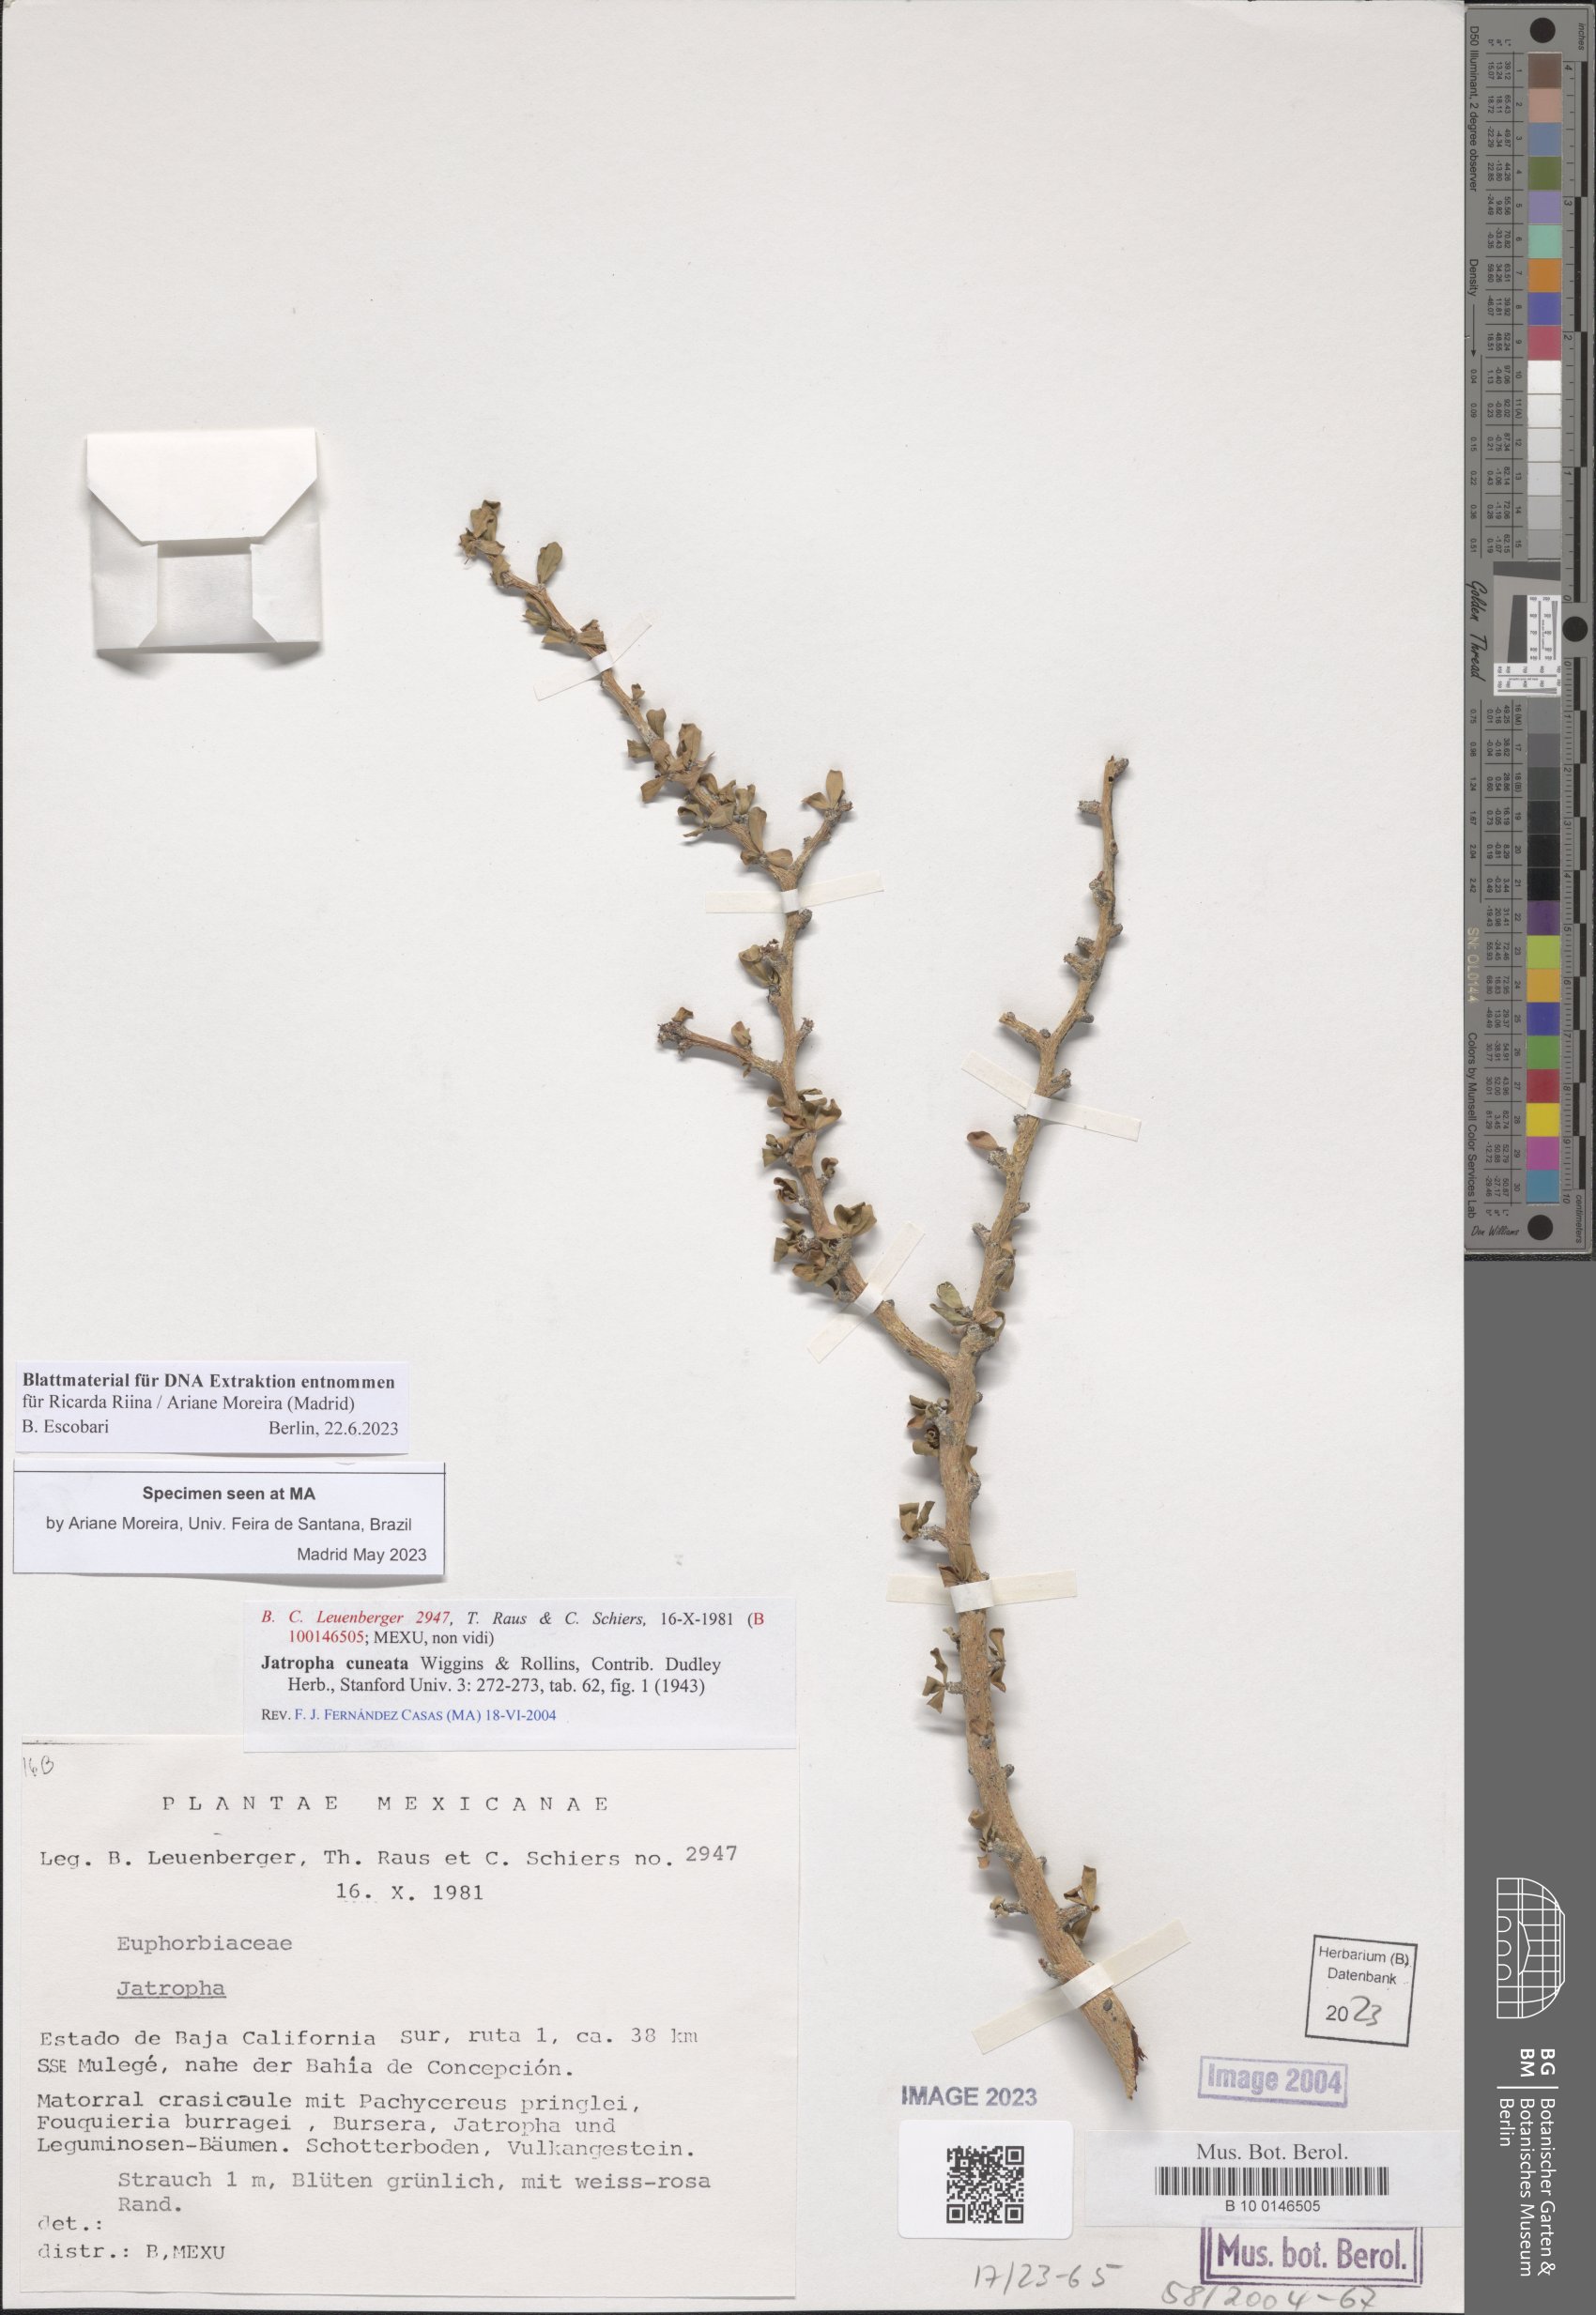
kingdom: Plantae
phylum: Tracheophyta
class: Magnoliopsida
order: Malpighiales
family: Euphorbiaceae
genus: Jatropha
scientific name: Jatropha cuneata
